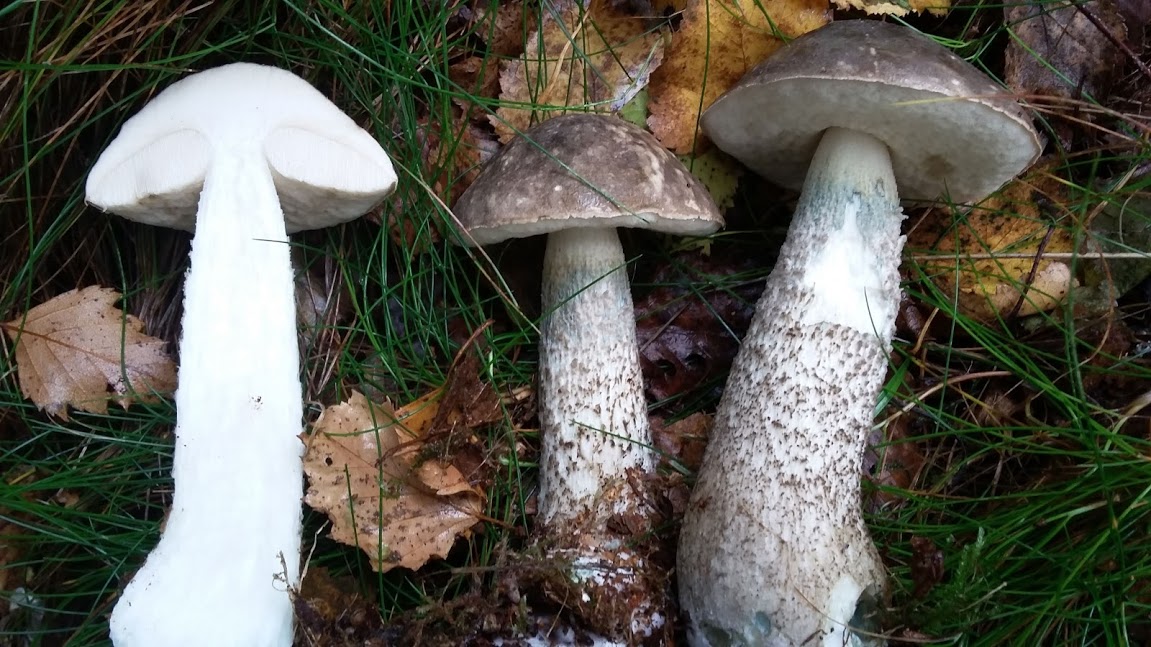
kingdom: Fungi
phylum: Basidiomycota
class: Agaricomycetes
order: Boletales
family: Boletaceae
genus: Leccinum
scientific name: Leccinum variicolor
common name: flammet skælrørhat
